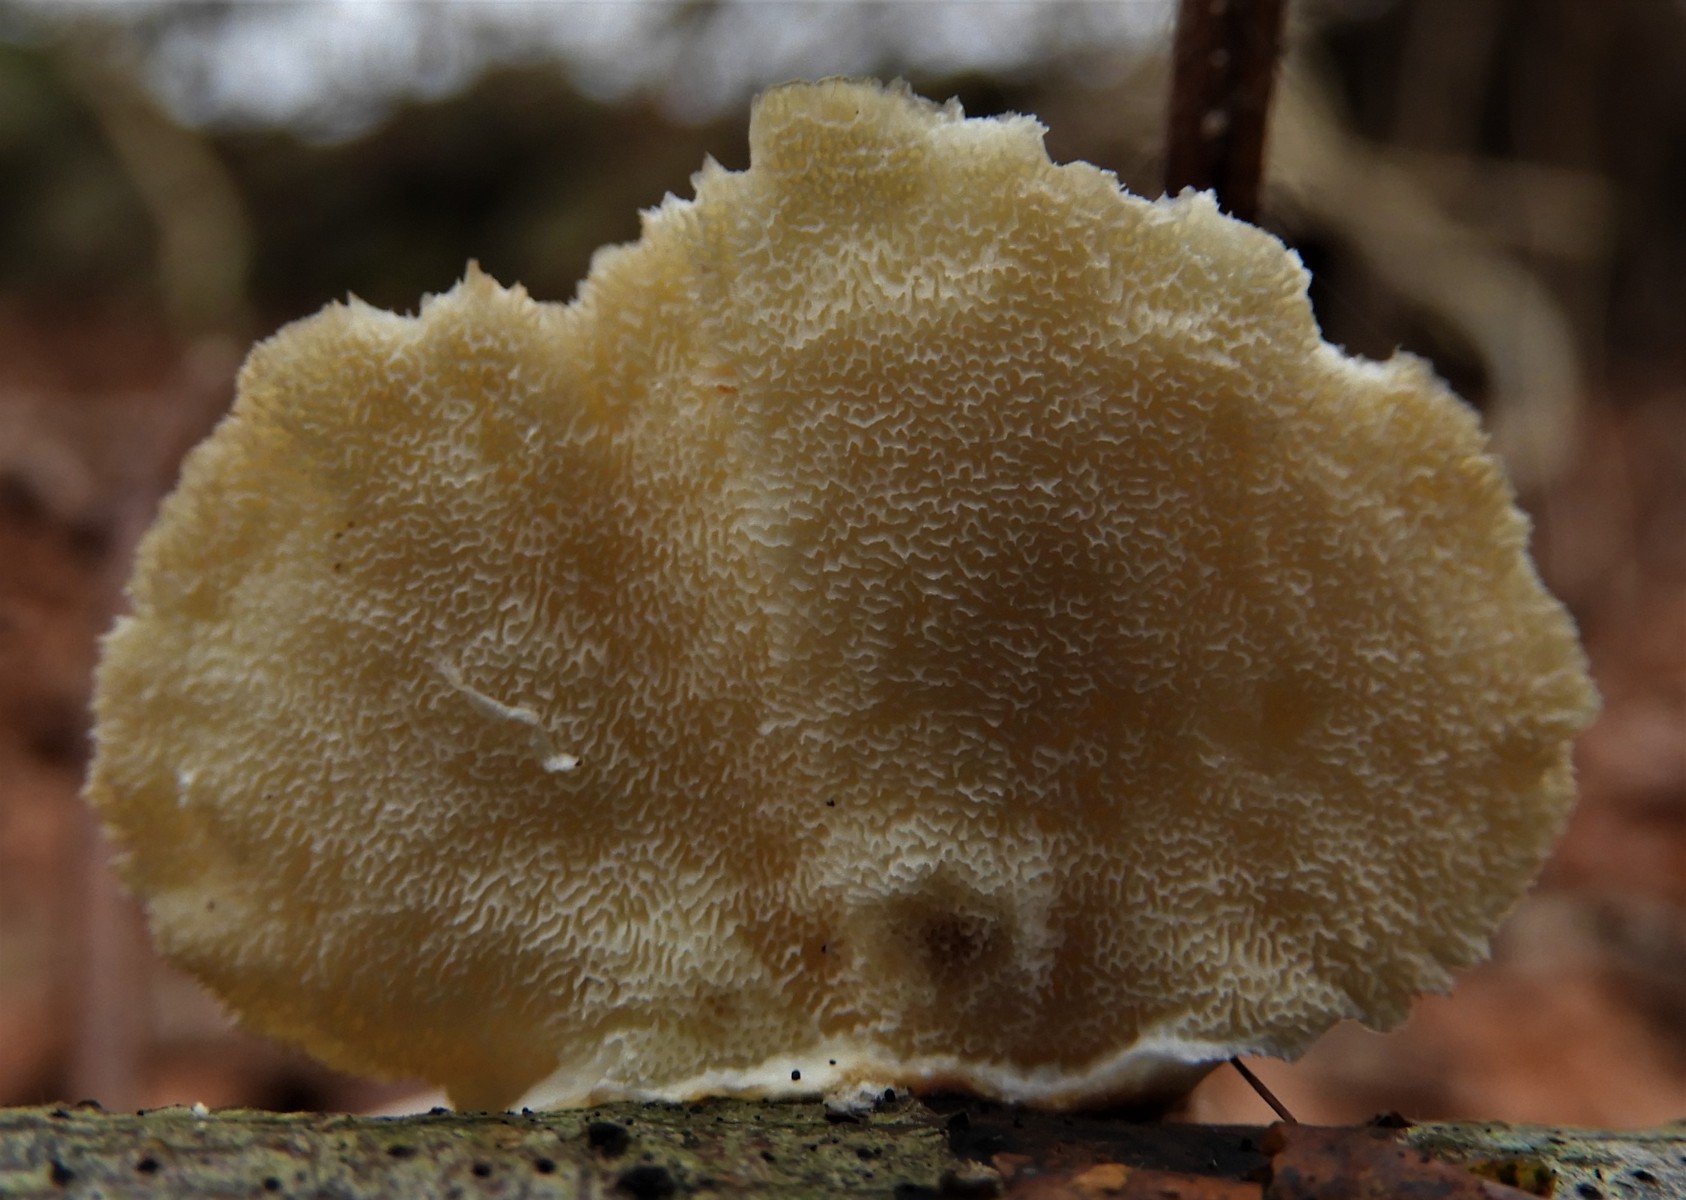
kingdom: Fungi
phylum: Basidiomycota
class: Agaricomycetes
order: Polyporales
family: Polyporaceae
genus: Trametes
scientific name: Trametes ochracea
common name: bæltet læderporesvamp
